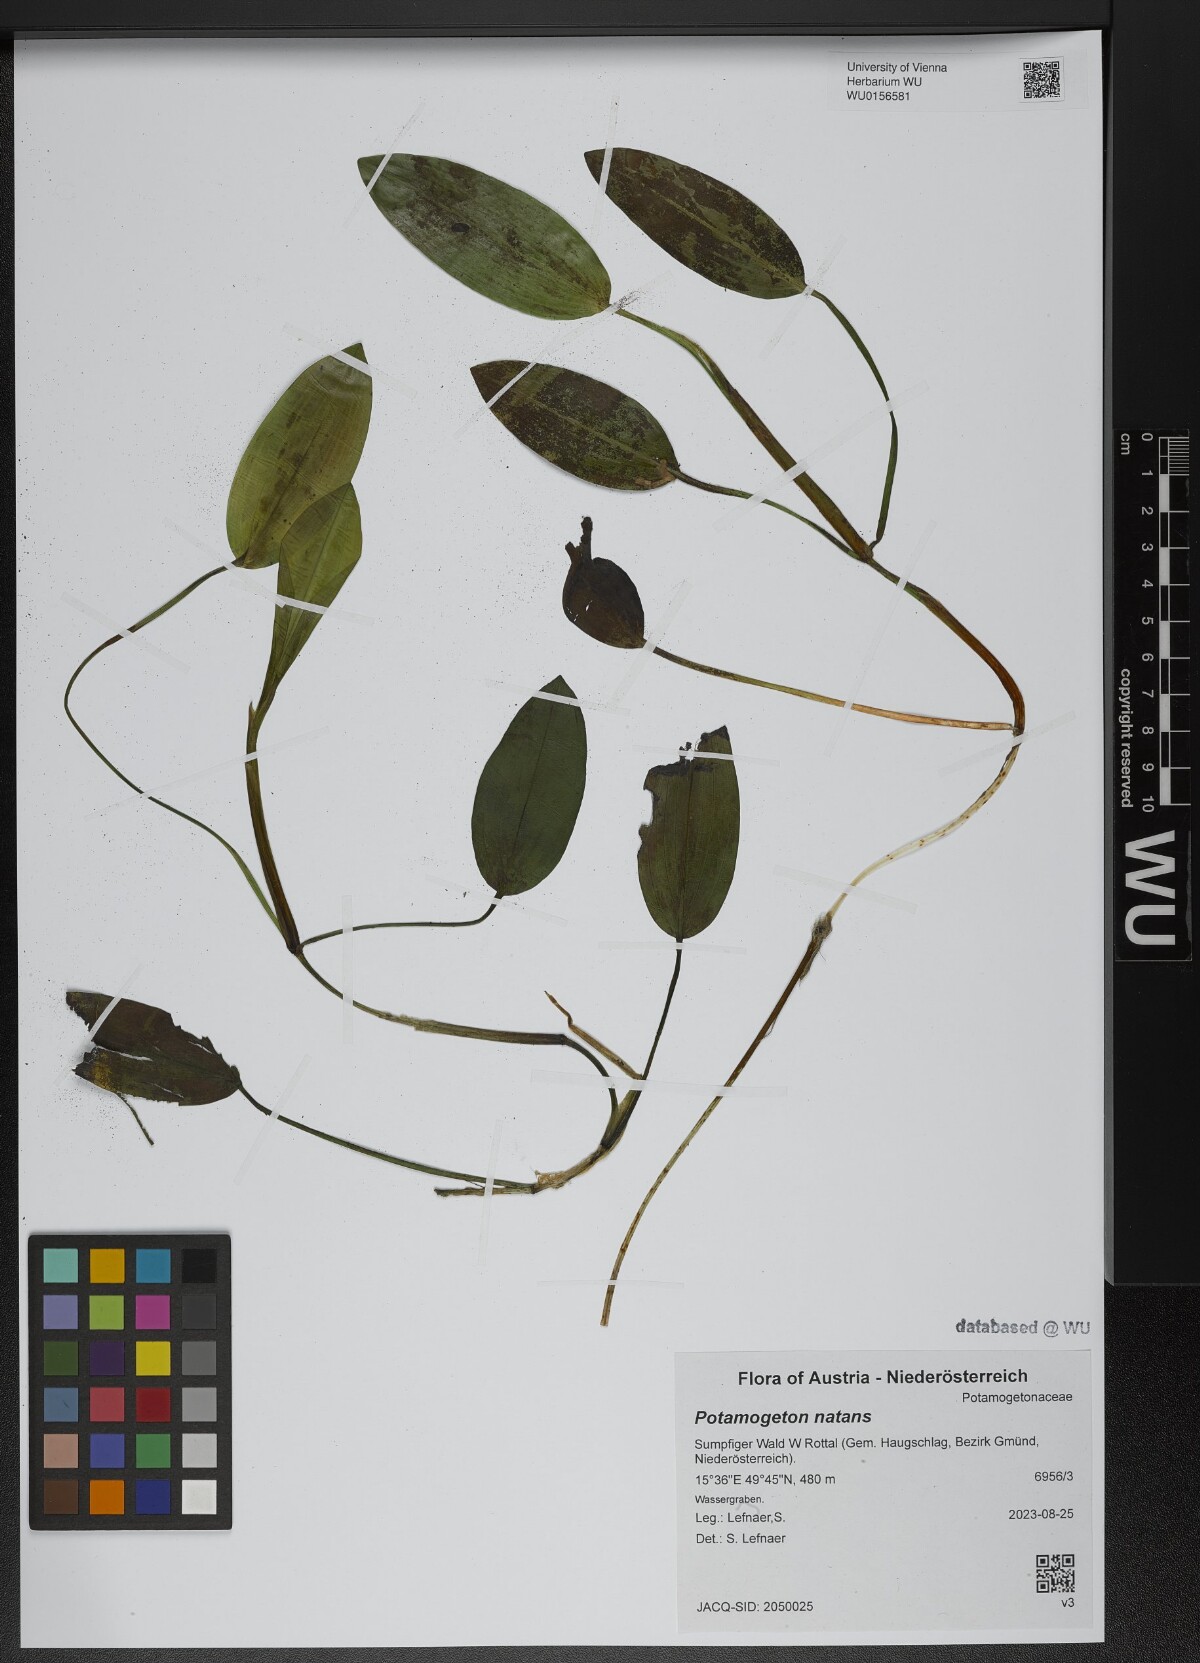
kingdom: Plantae
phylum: Tracheophyta
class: Liliopsida
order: Alismatales
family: Potamogetonaceae
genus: Potamogeton
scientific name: Potamogeton natans
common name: Broad-leaved pondweed
